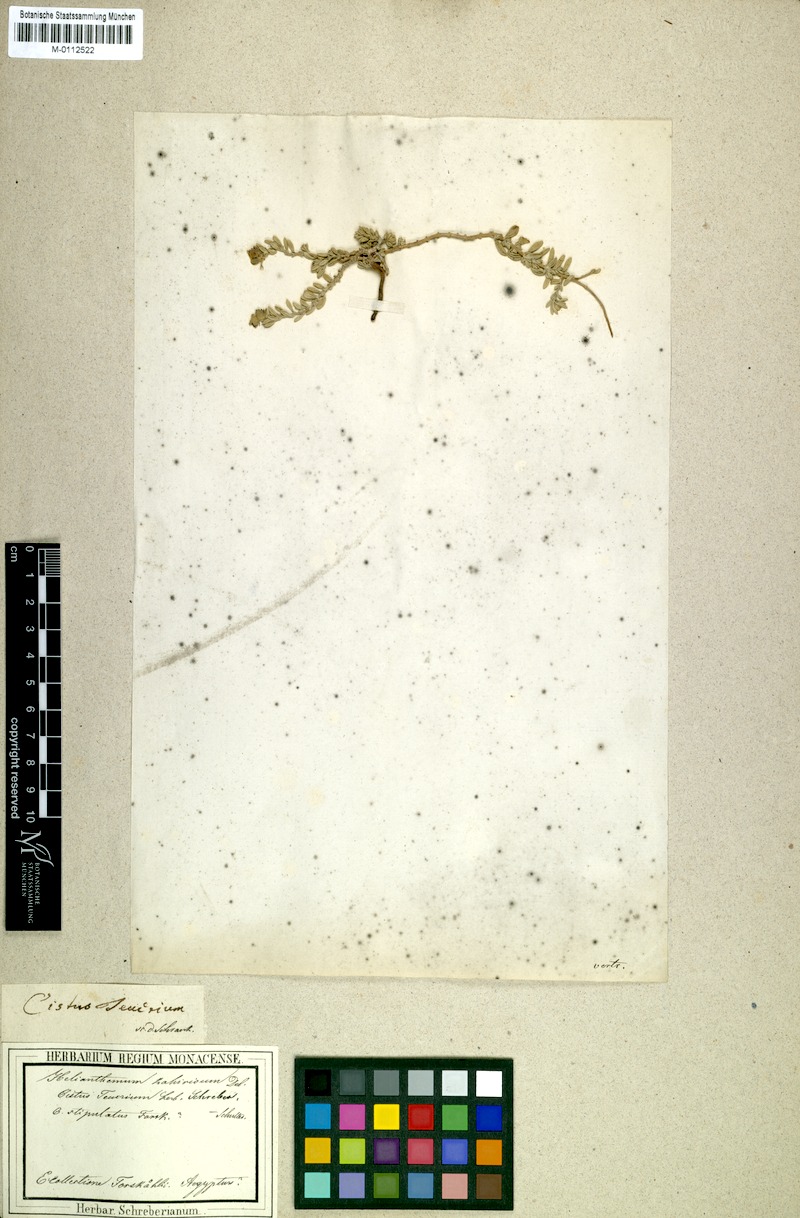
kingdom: Plantae
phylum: Tracheophyta
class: Magnoliopsida
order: Malvales
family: Cistaceae
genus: Helianthemum
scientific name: Helianthemum stipulatum
